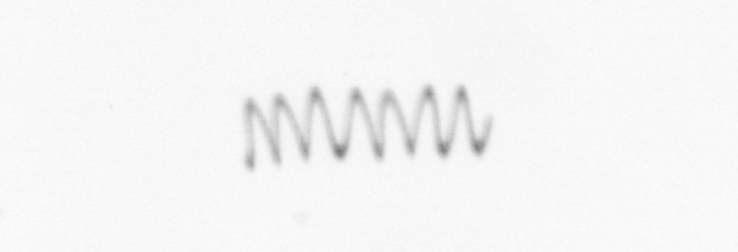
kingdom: Chromista
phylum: Ochrophyta
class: Bacillariophyceae
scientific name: Bacillariophyceae
